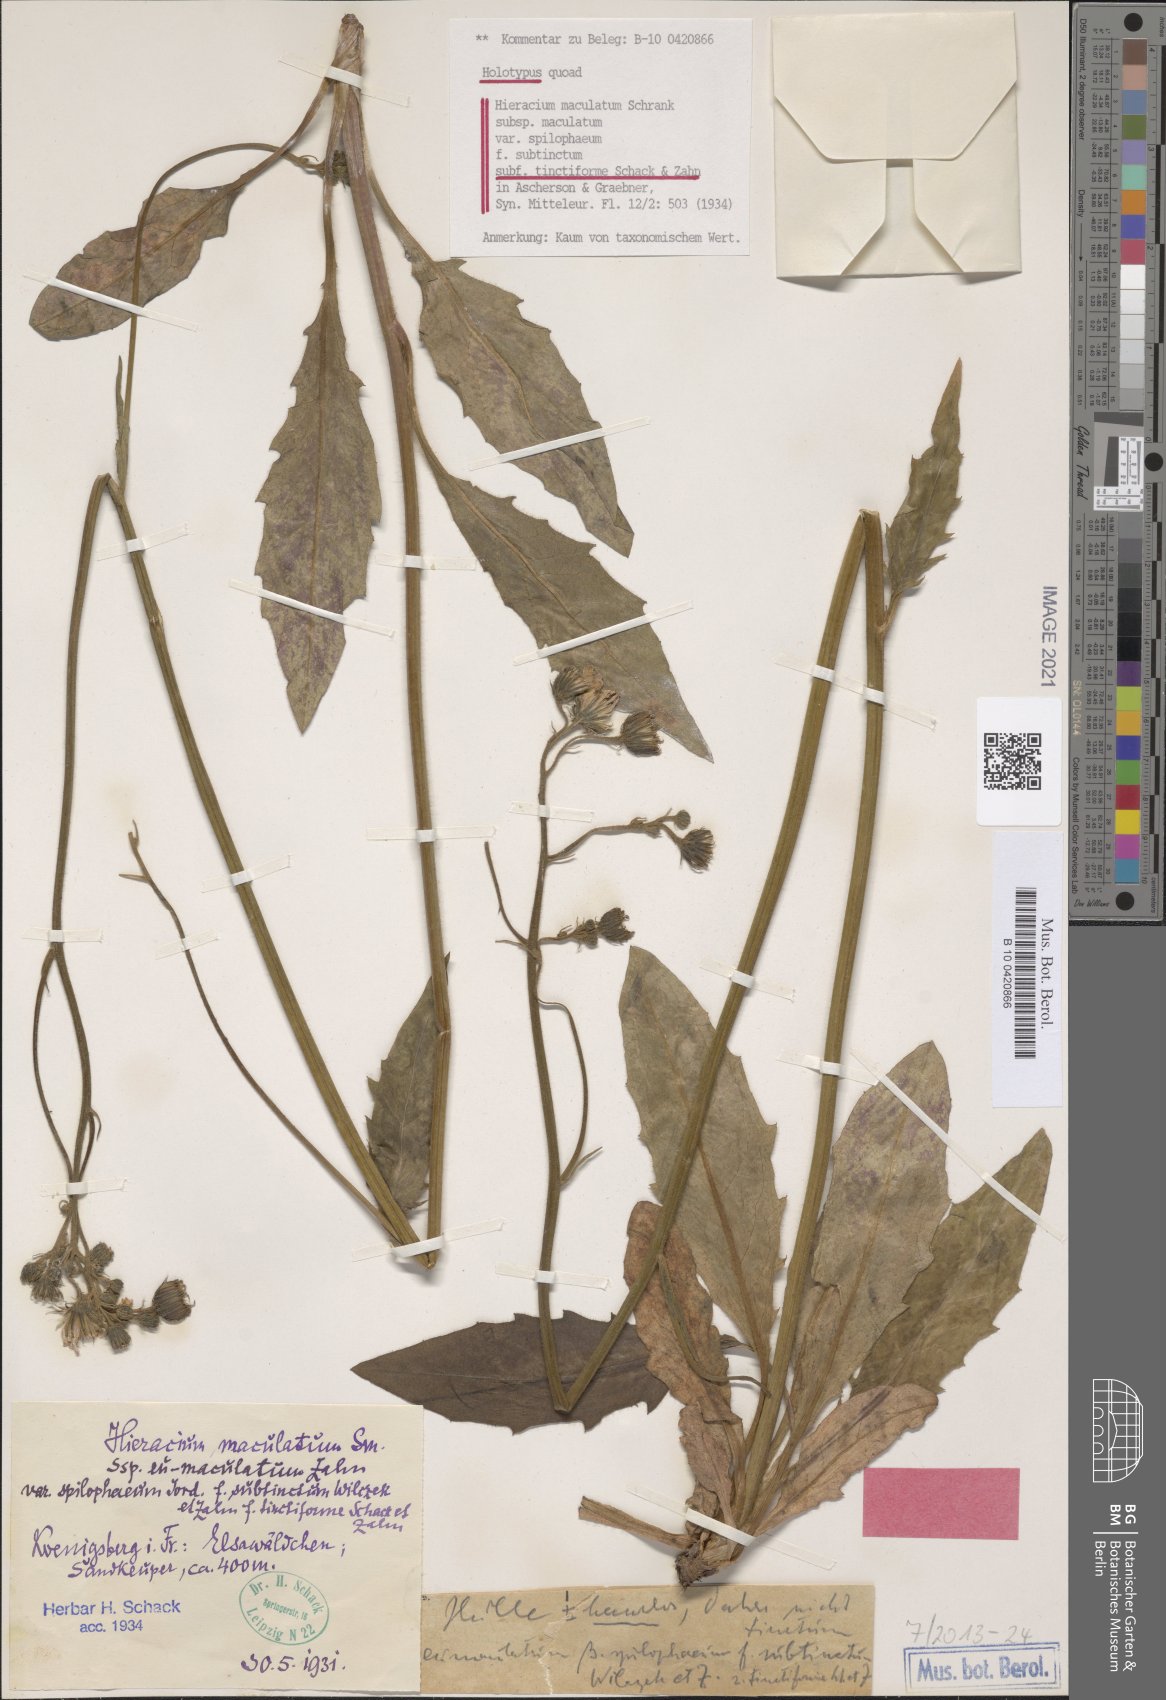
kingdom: Plantae
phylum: Tracheophyta
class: Magnoliopsida
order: Asterales
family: Asteraceae
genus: Hieracium
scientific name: Hieracium maculatum
